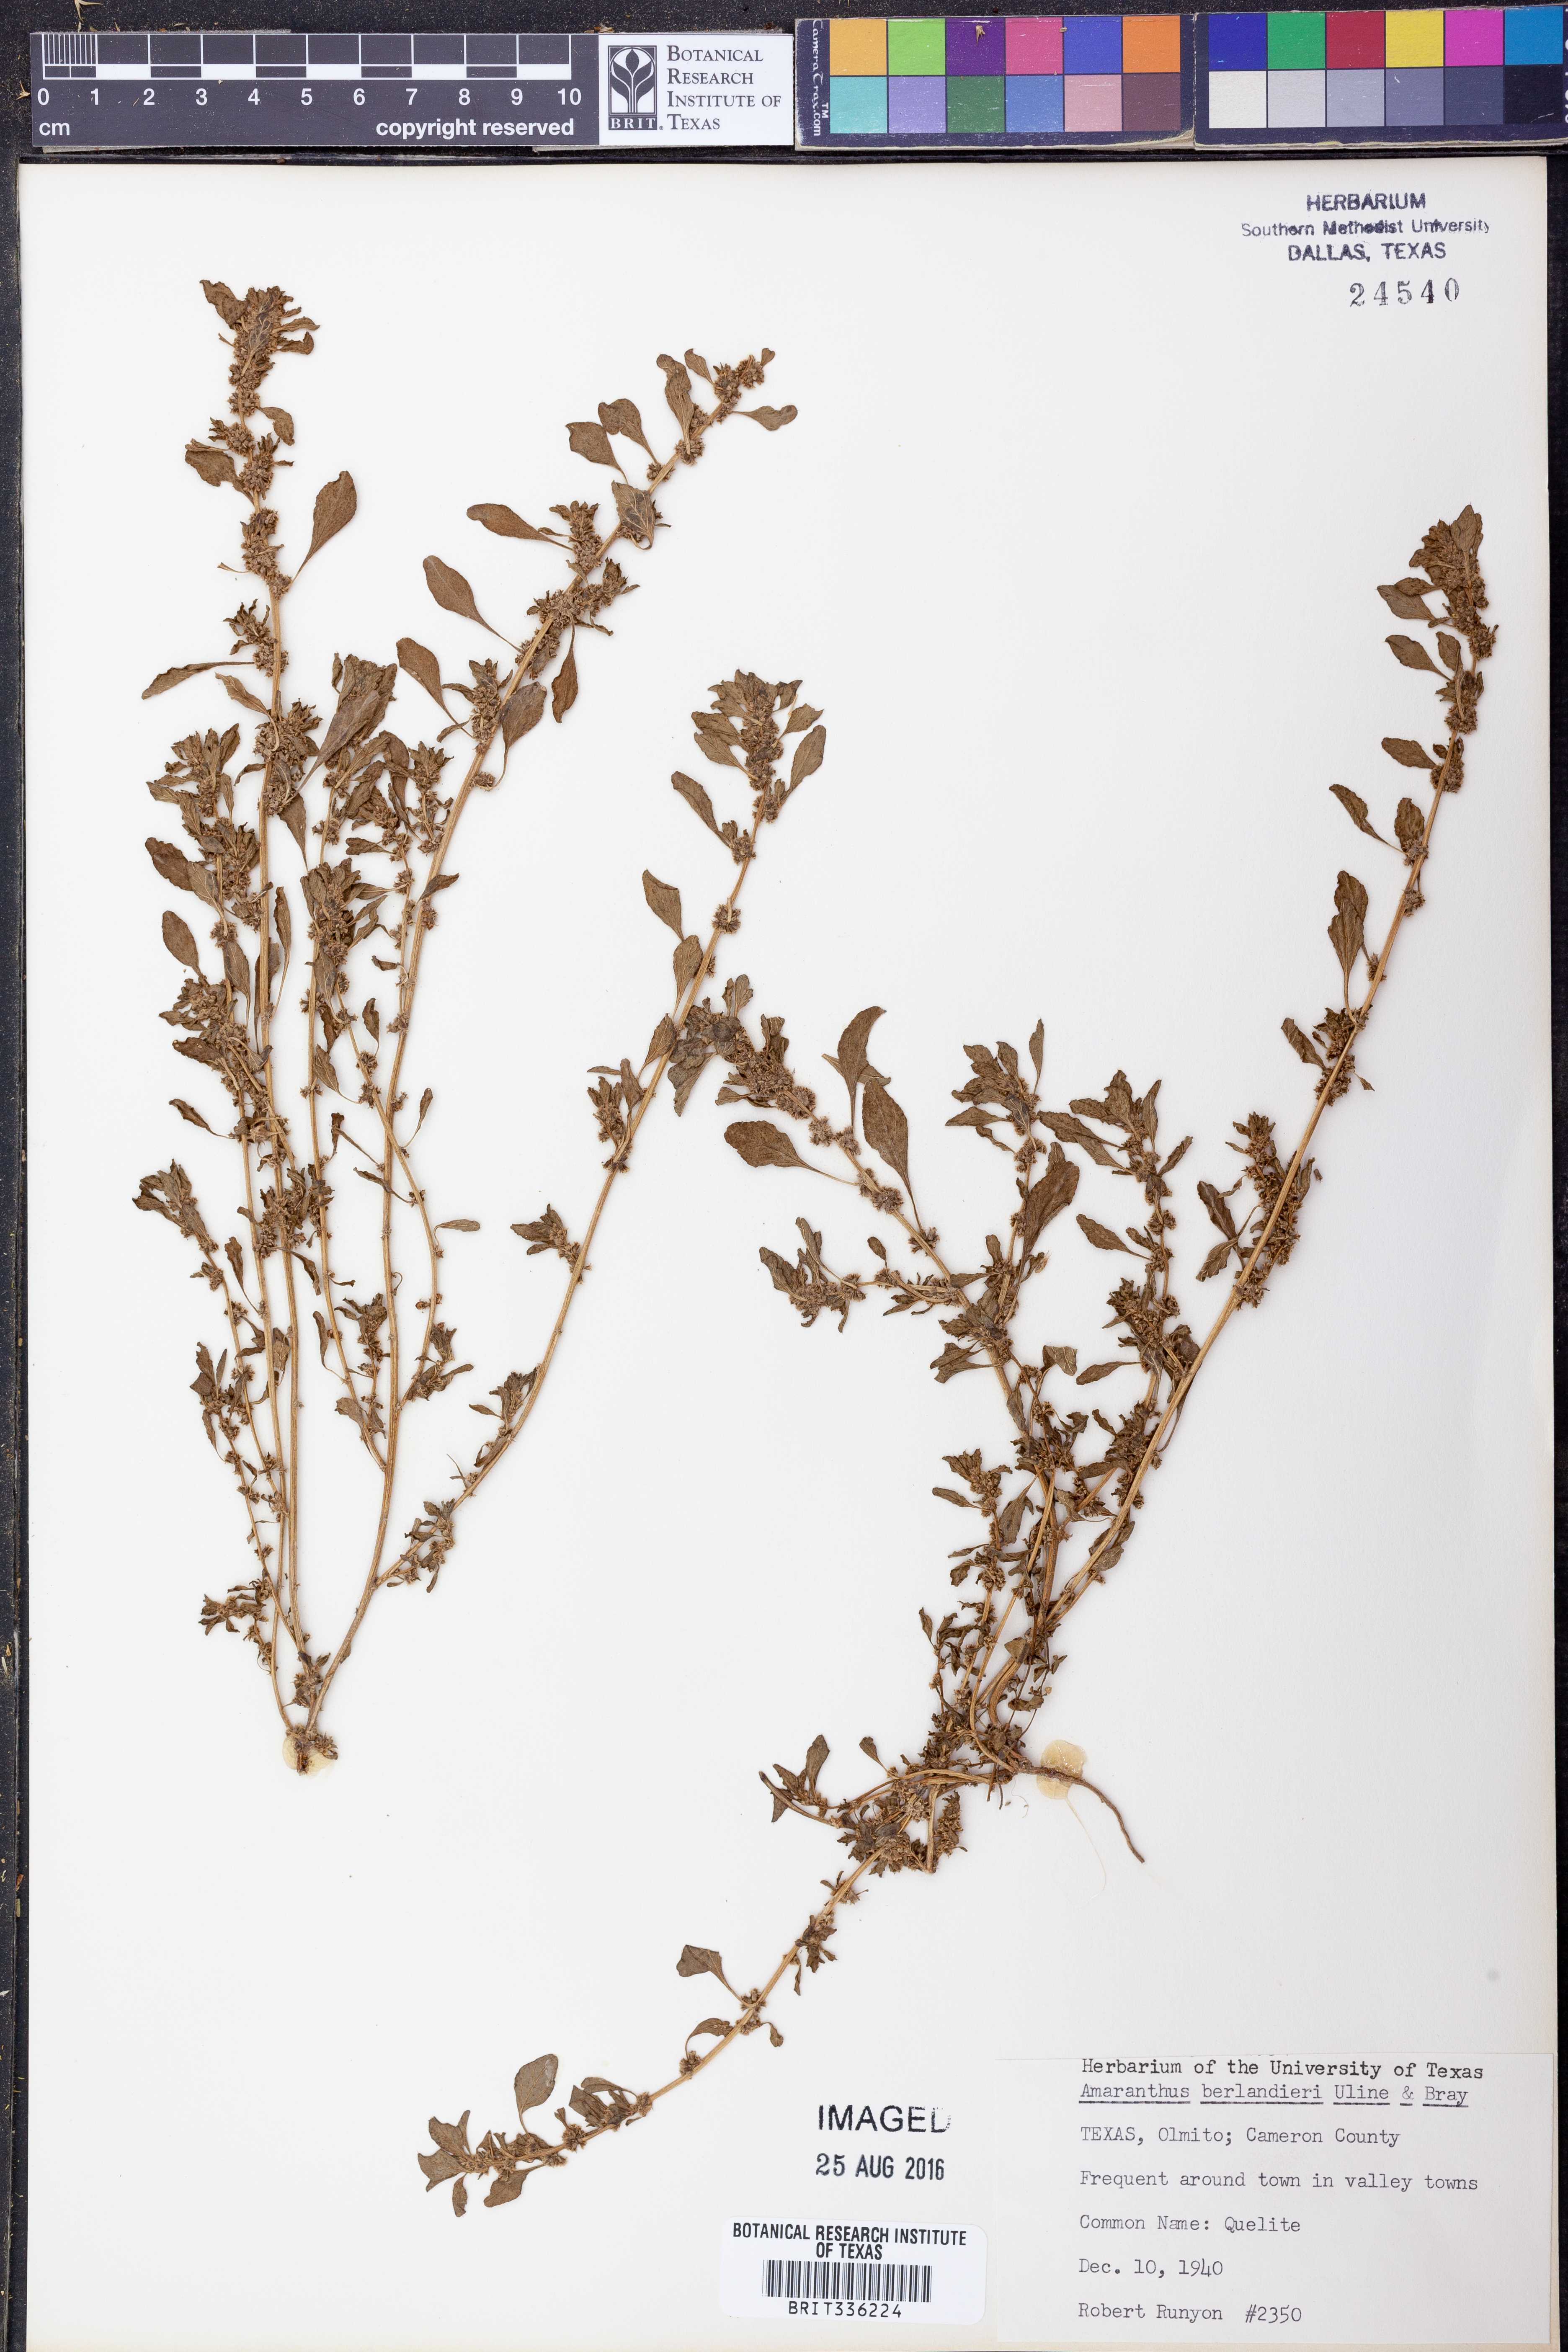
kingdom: Plantae
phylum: Tracheophyta
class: Magnoliopsida
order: Caryophyllales
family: Amaranthaceae
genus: Amaranthus
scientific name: Amaranthus polygonoides
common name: Tropical amaranth
